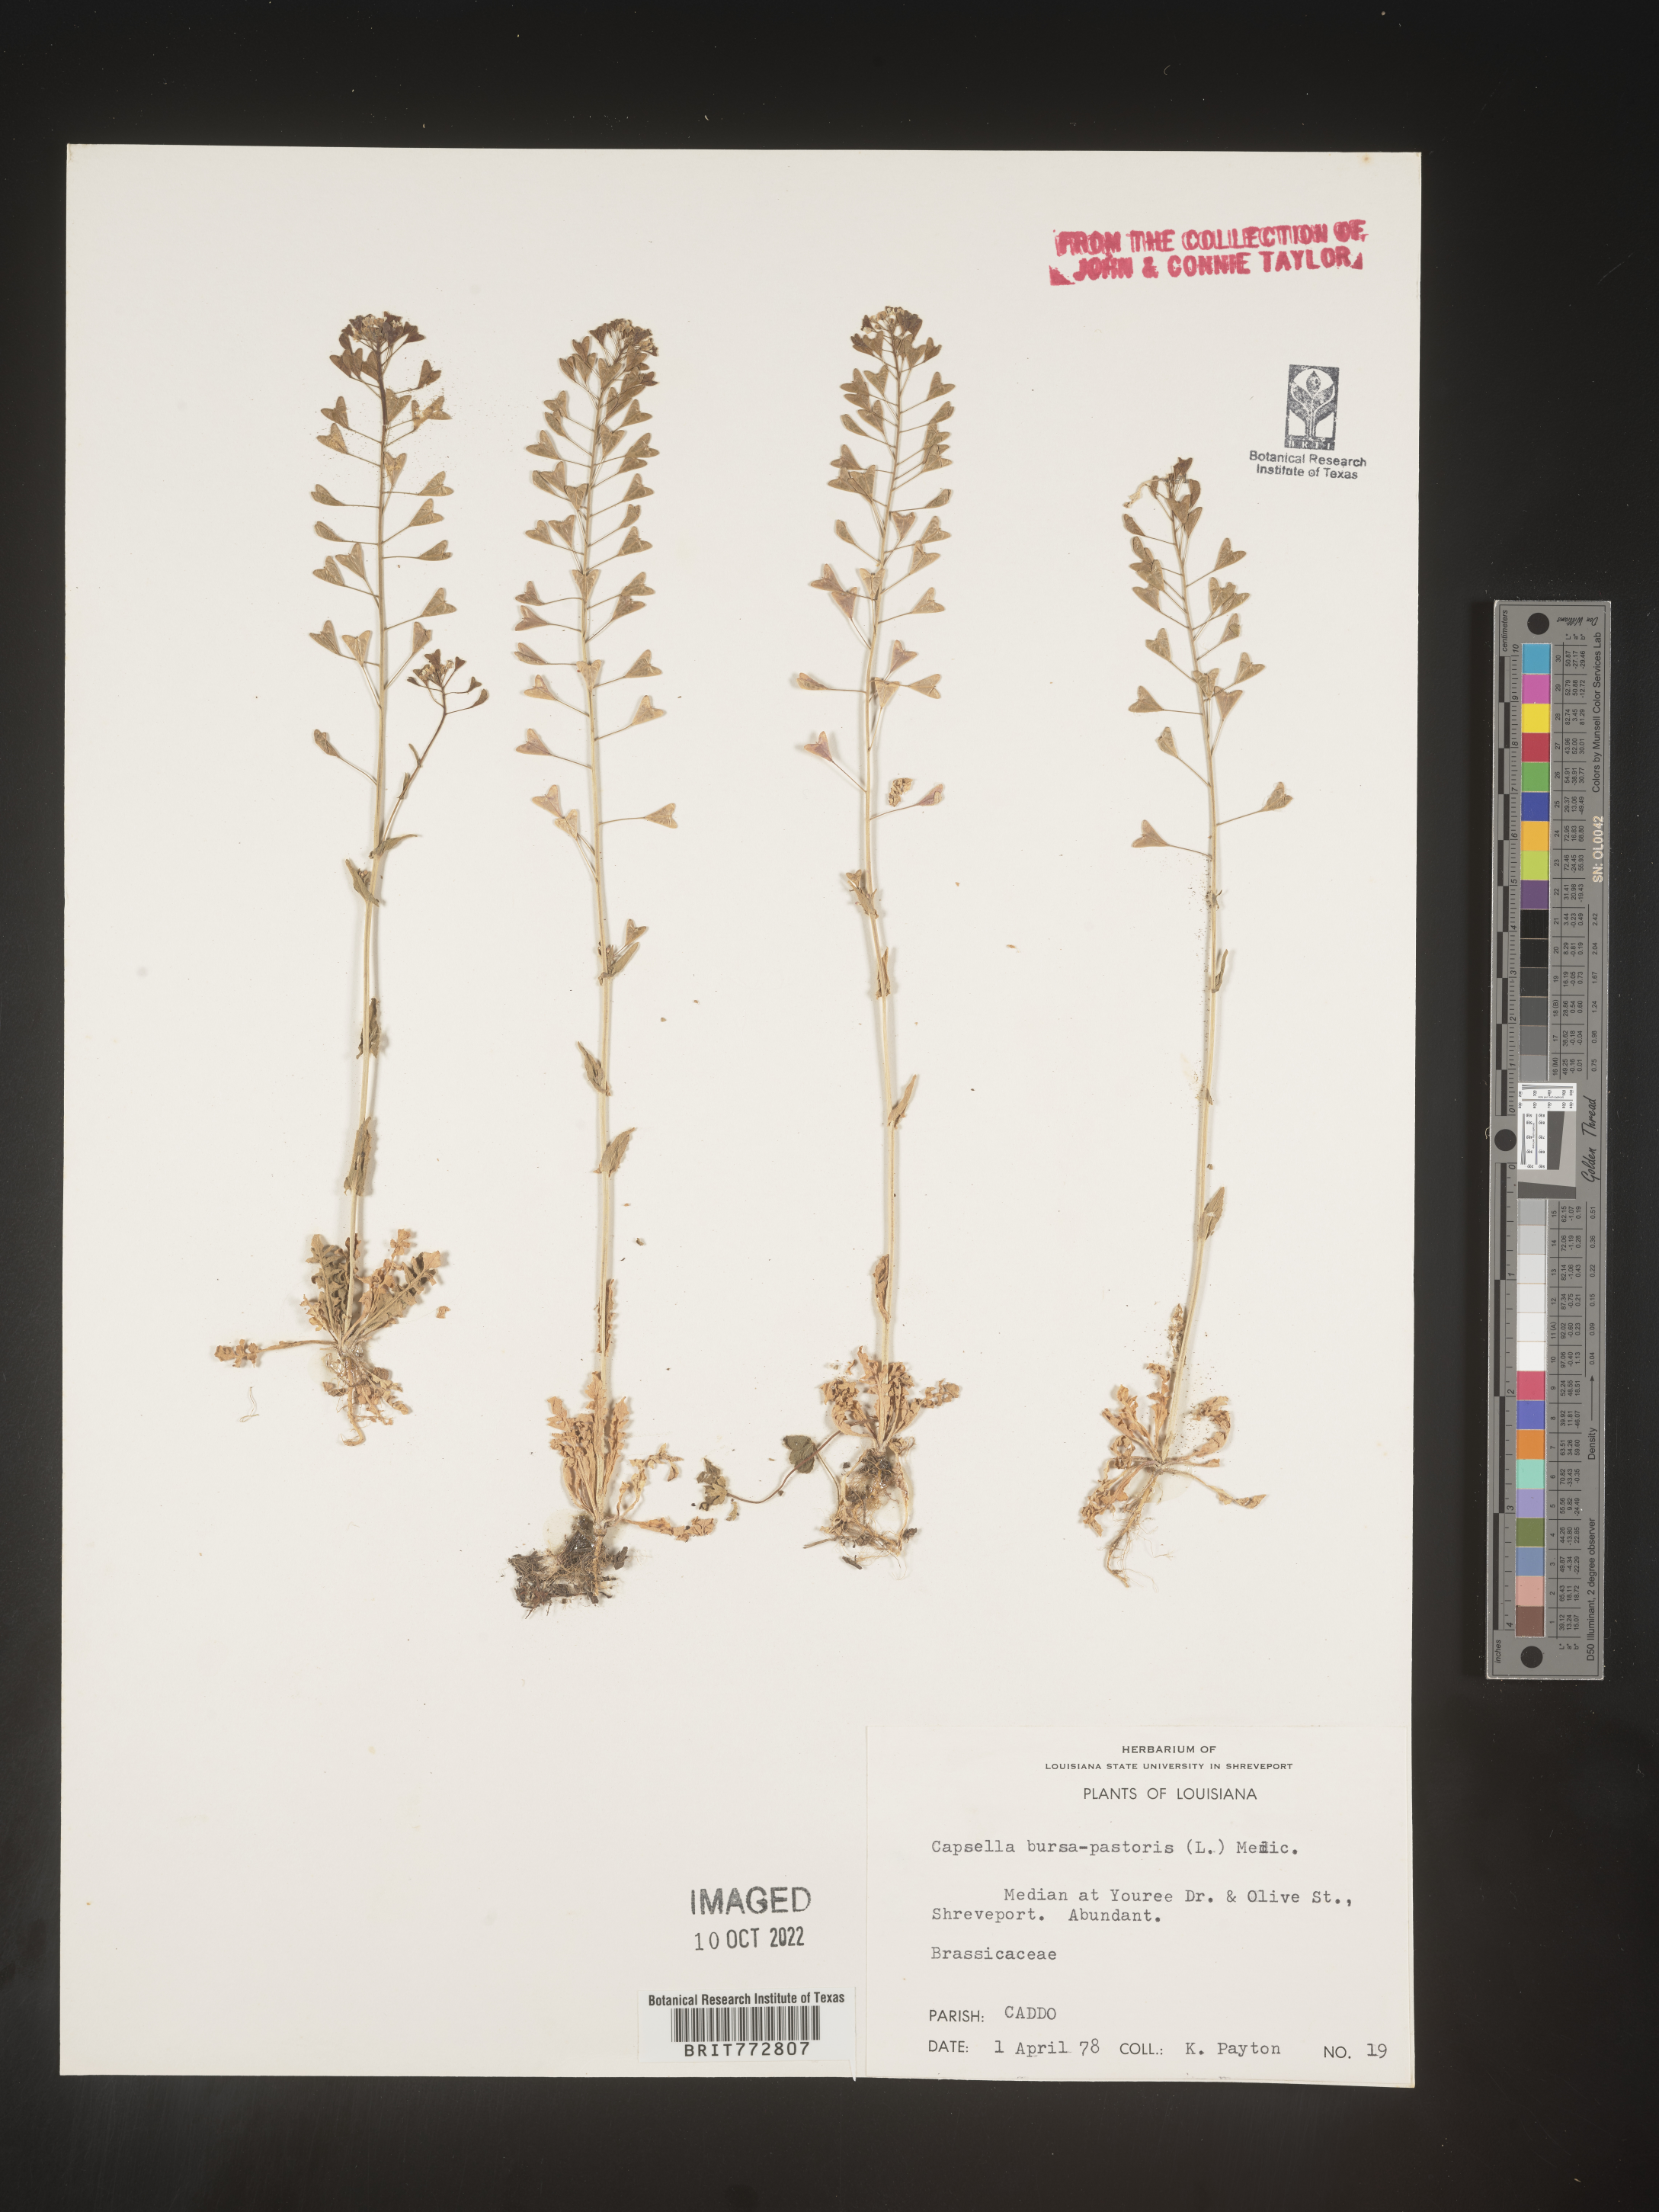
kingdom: Plantae
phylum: Tracheophyta
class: Magnoliopsida
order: Brassicales
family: Brassicaceae
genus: Capsella
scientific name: Capsella bursa-pastoris
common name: Shepherd's purse
